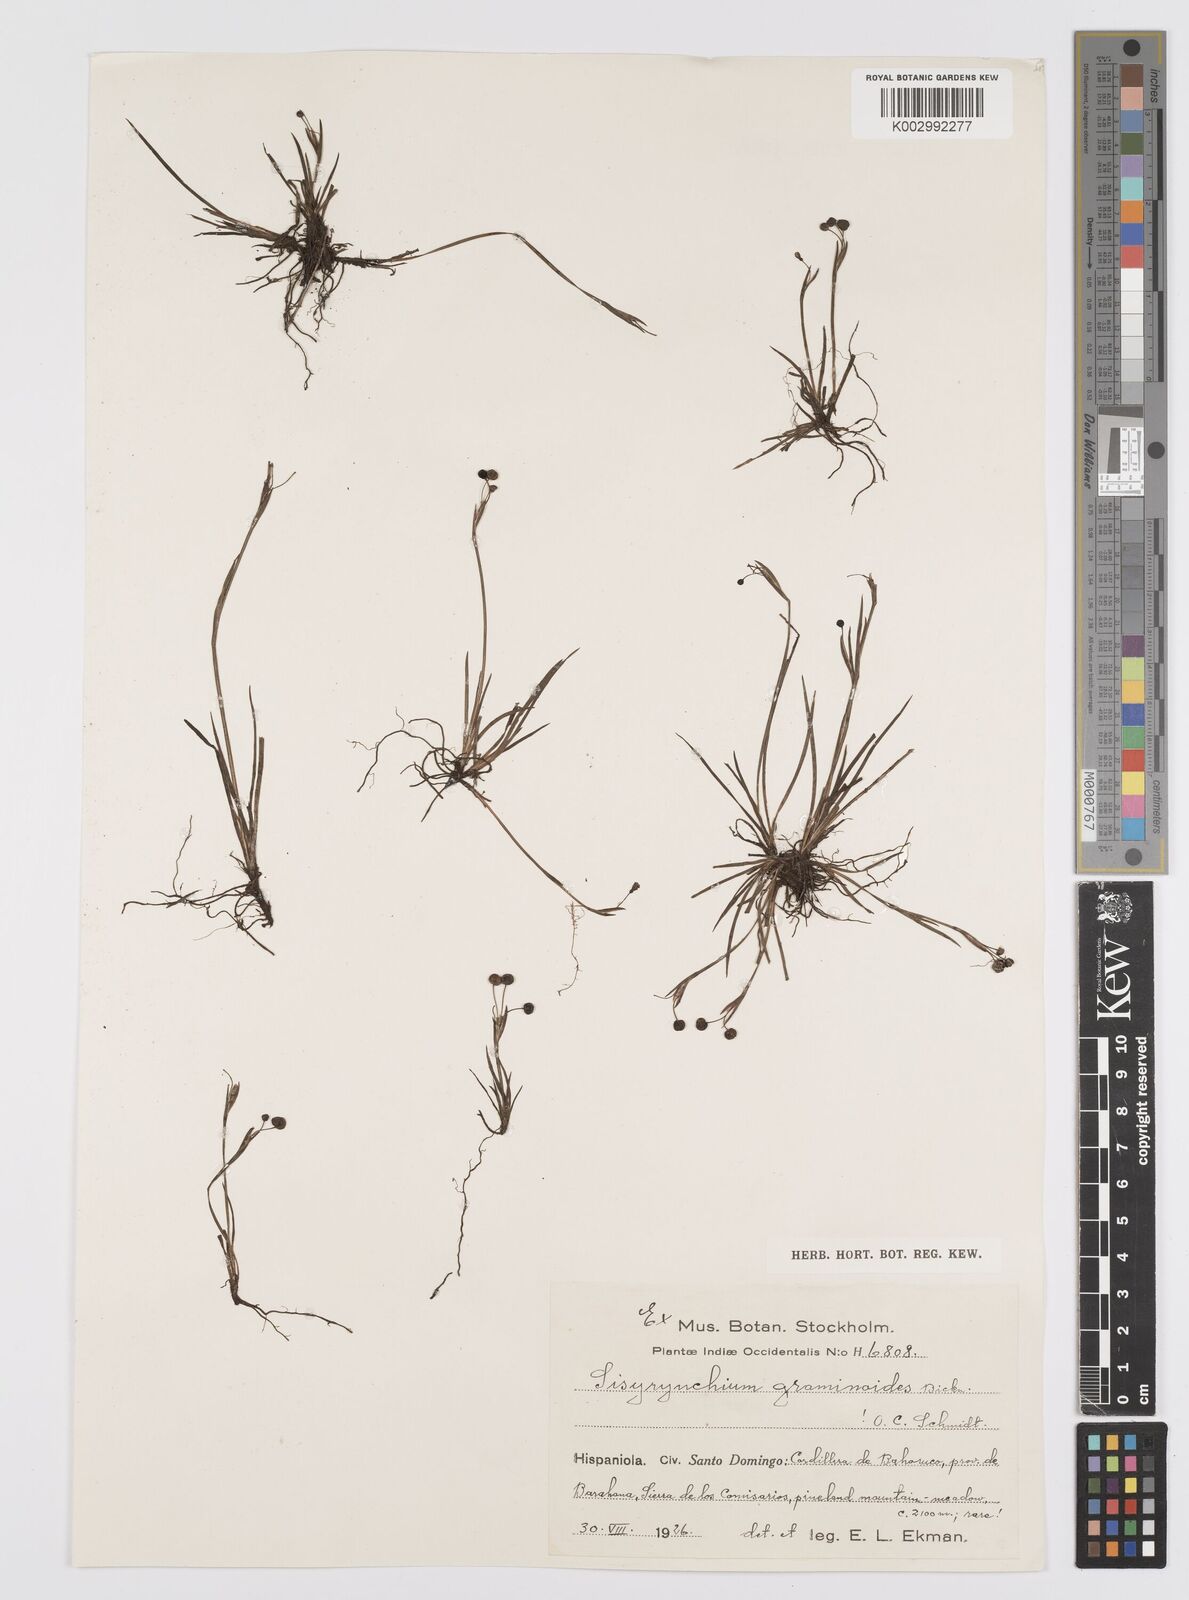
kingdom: Plantae
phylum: Tracheophyta
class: Liliopsida
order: Asparagales
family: Iridaceae
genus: Sisyrinchium
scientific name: Sisyrinchium micranthum
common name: Bermuda pigroot
